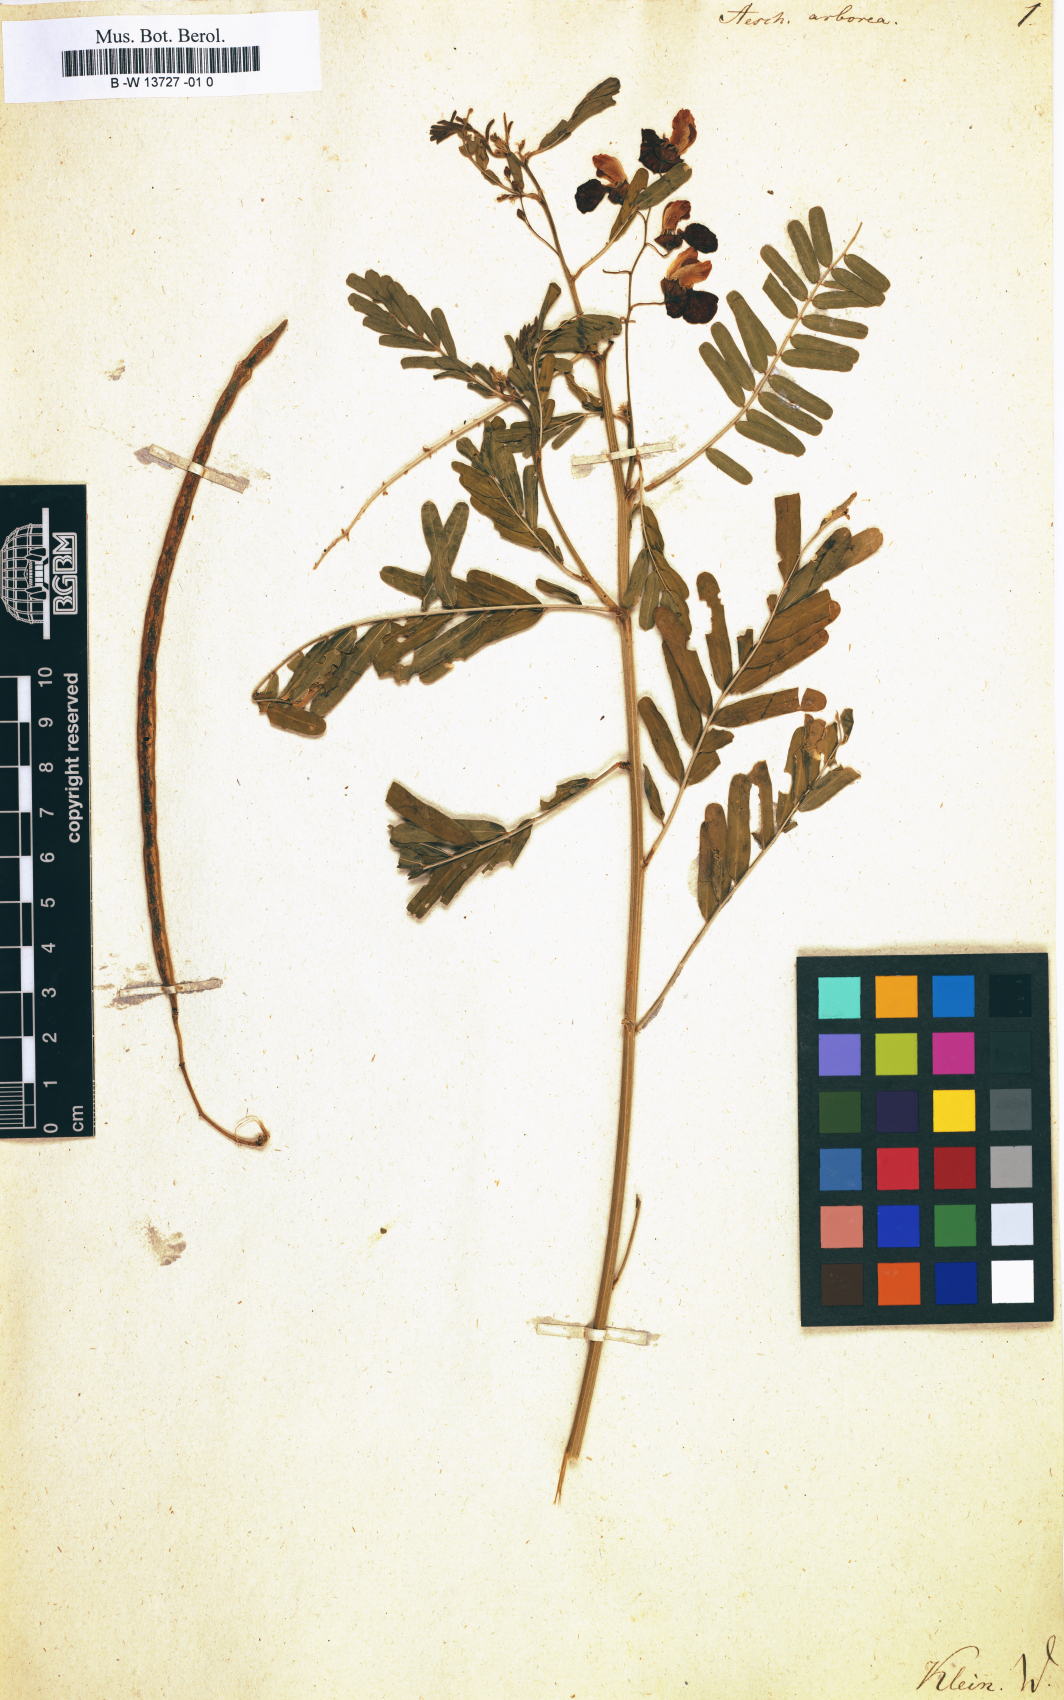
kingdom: Plantae
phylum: Tracheophyta
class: Magnoliopsida
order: Fabales
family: Fabaceae
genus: Dendrolobium
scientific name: Dendrolobium umbellatum
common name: Horsebush
